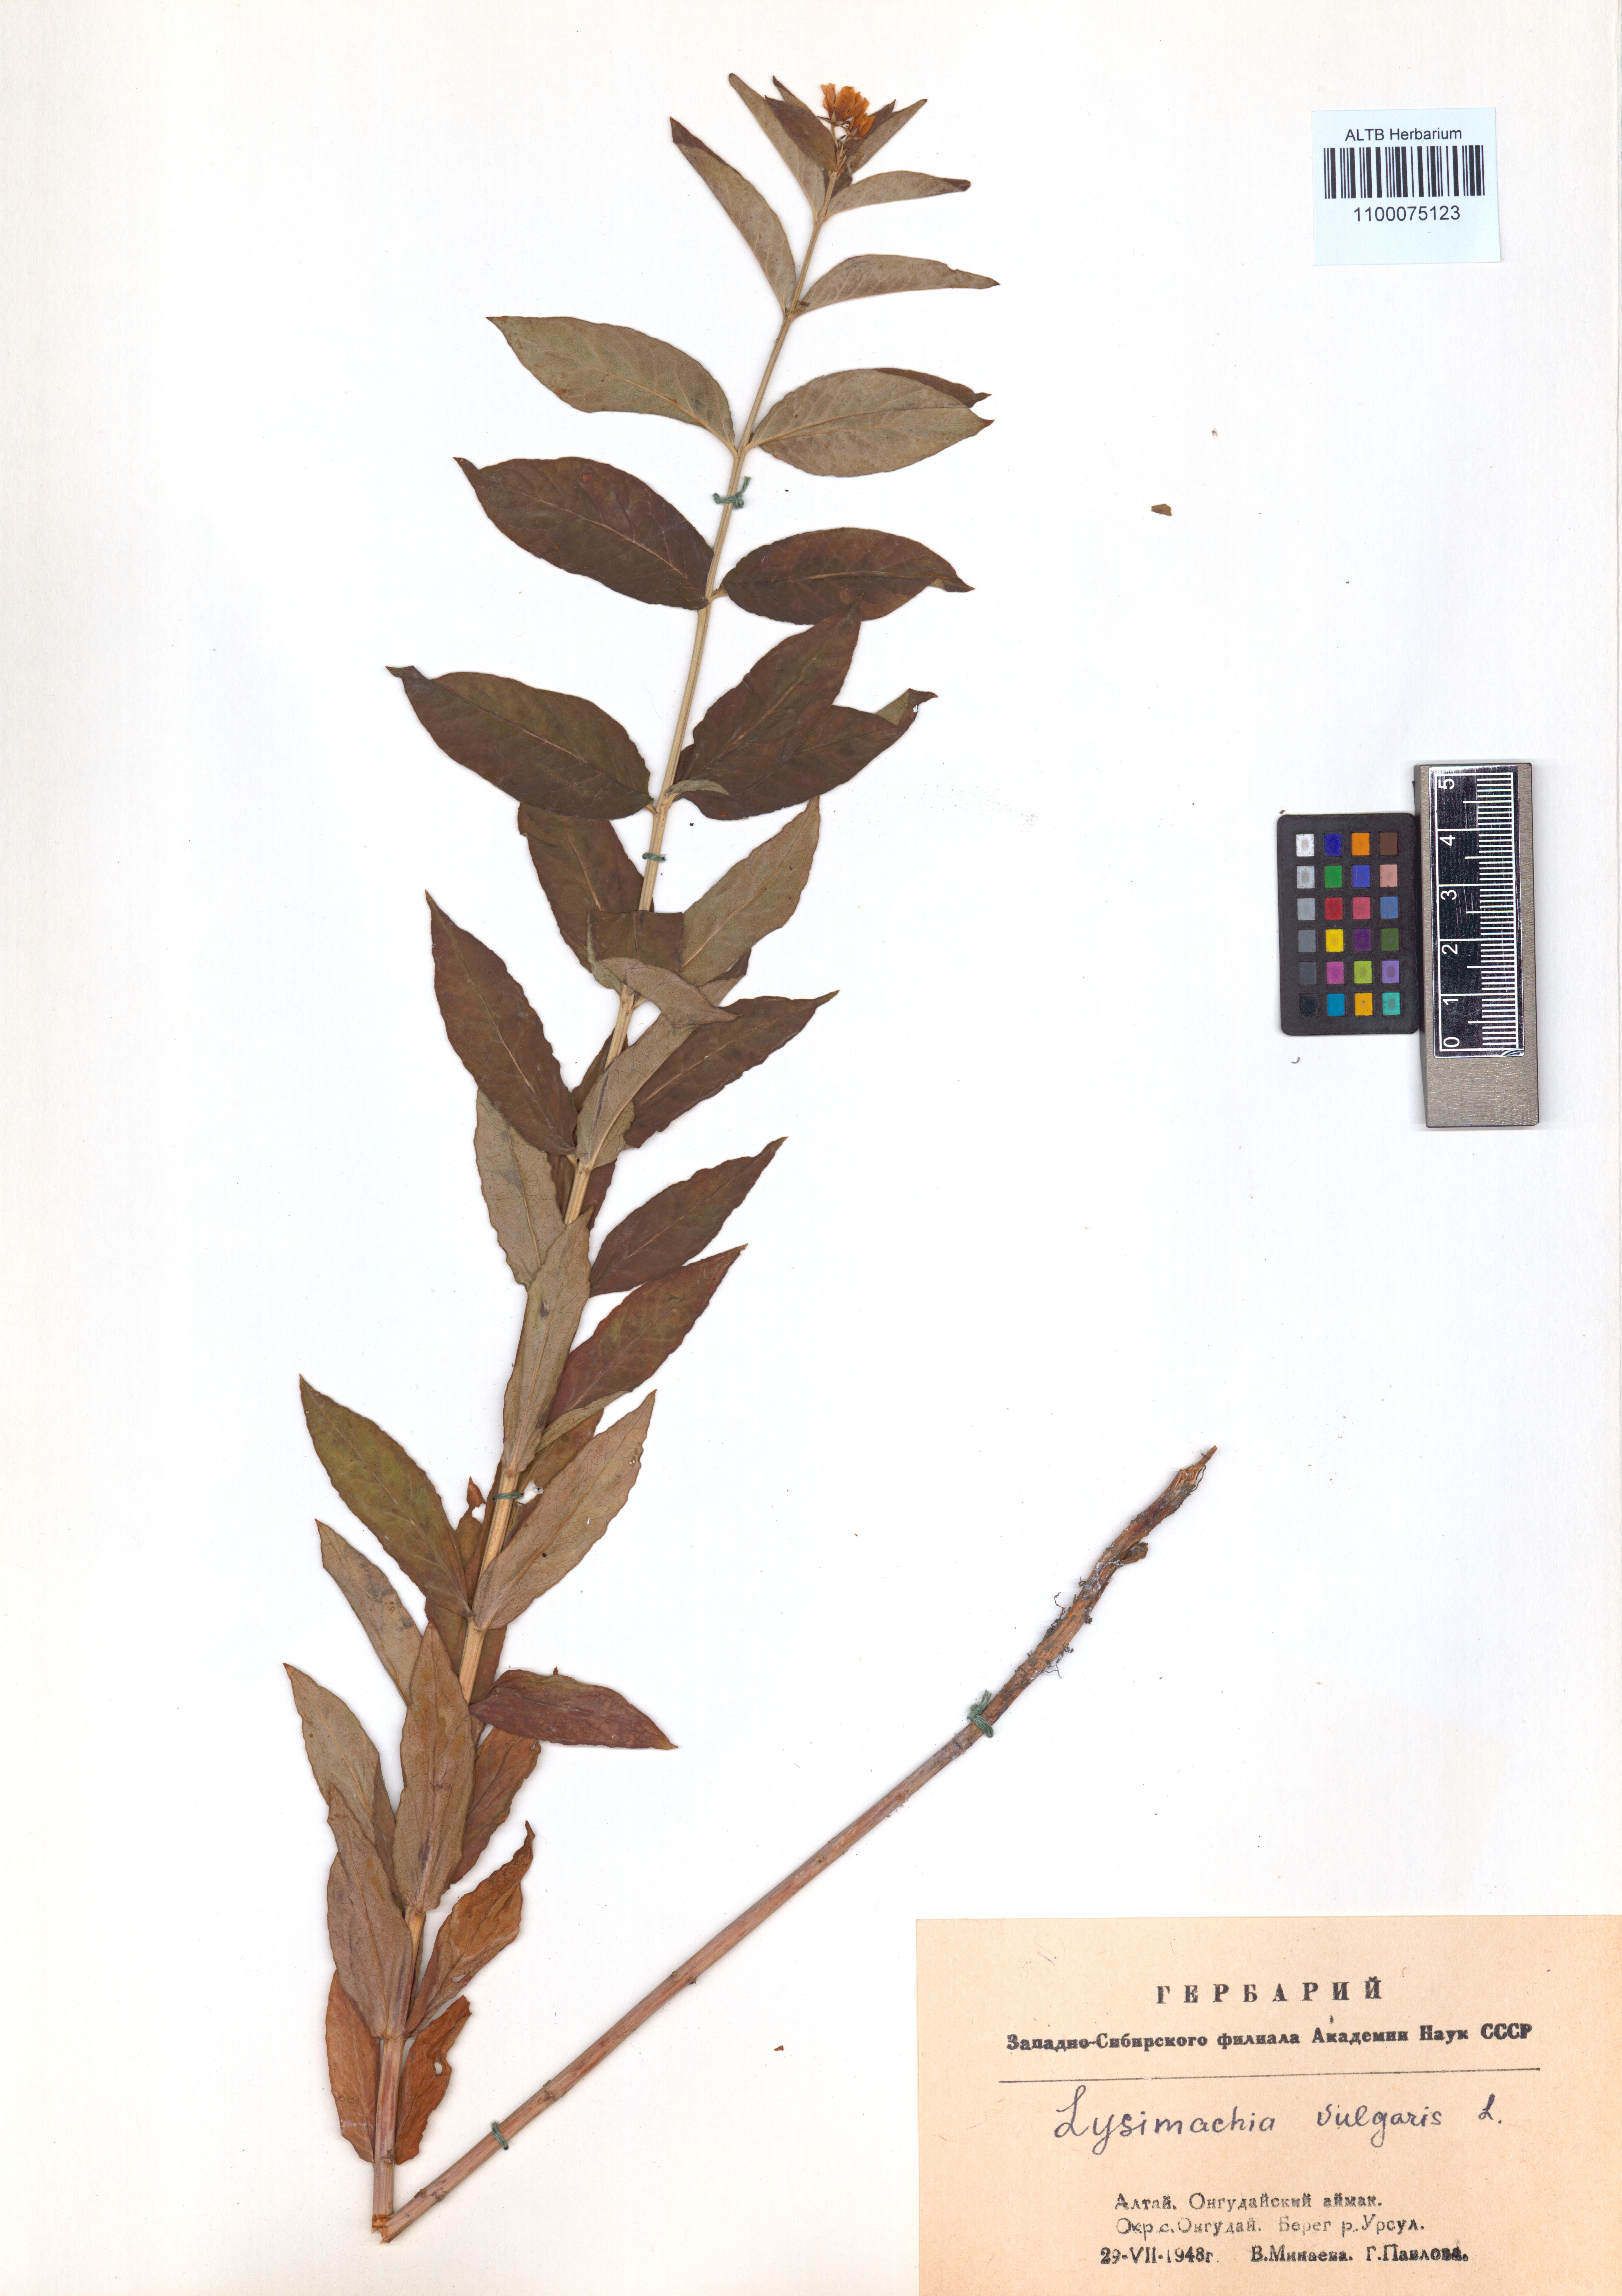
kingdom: Plantae
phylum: Tracheophyta
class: Magnoliopsida
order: Ericales
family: Primulaceae
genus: Lysimachia
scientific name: Lysimachia vulgaris
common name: Yellow loosestrife
